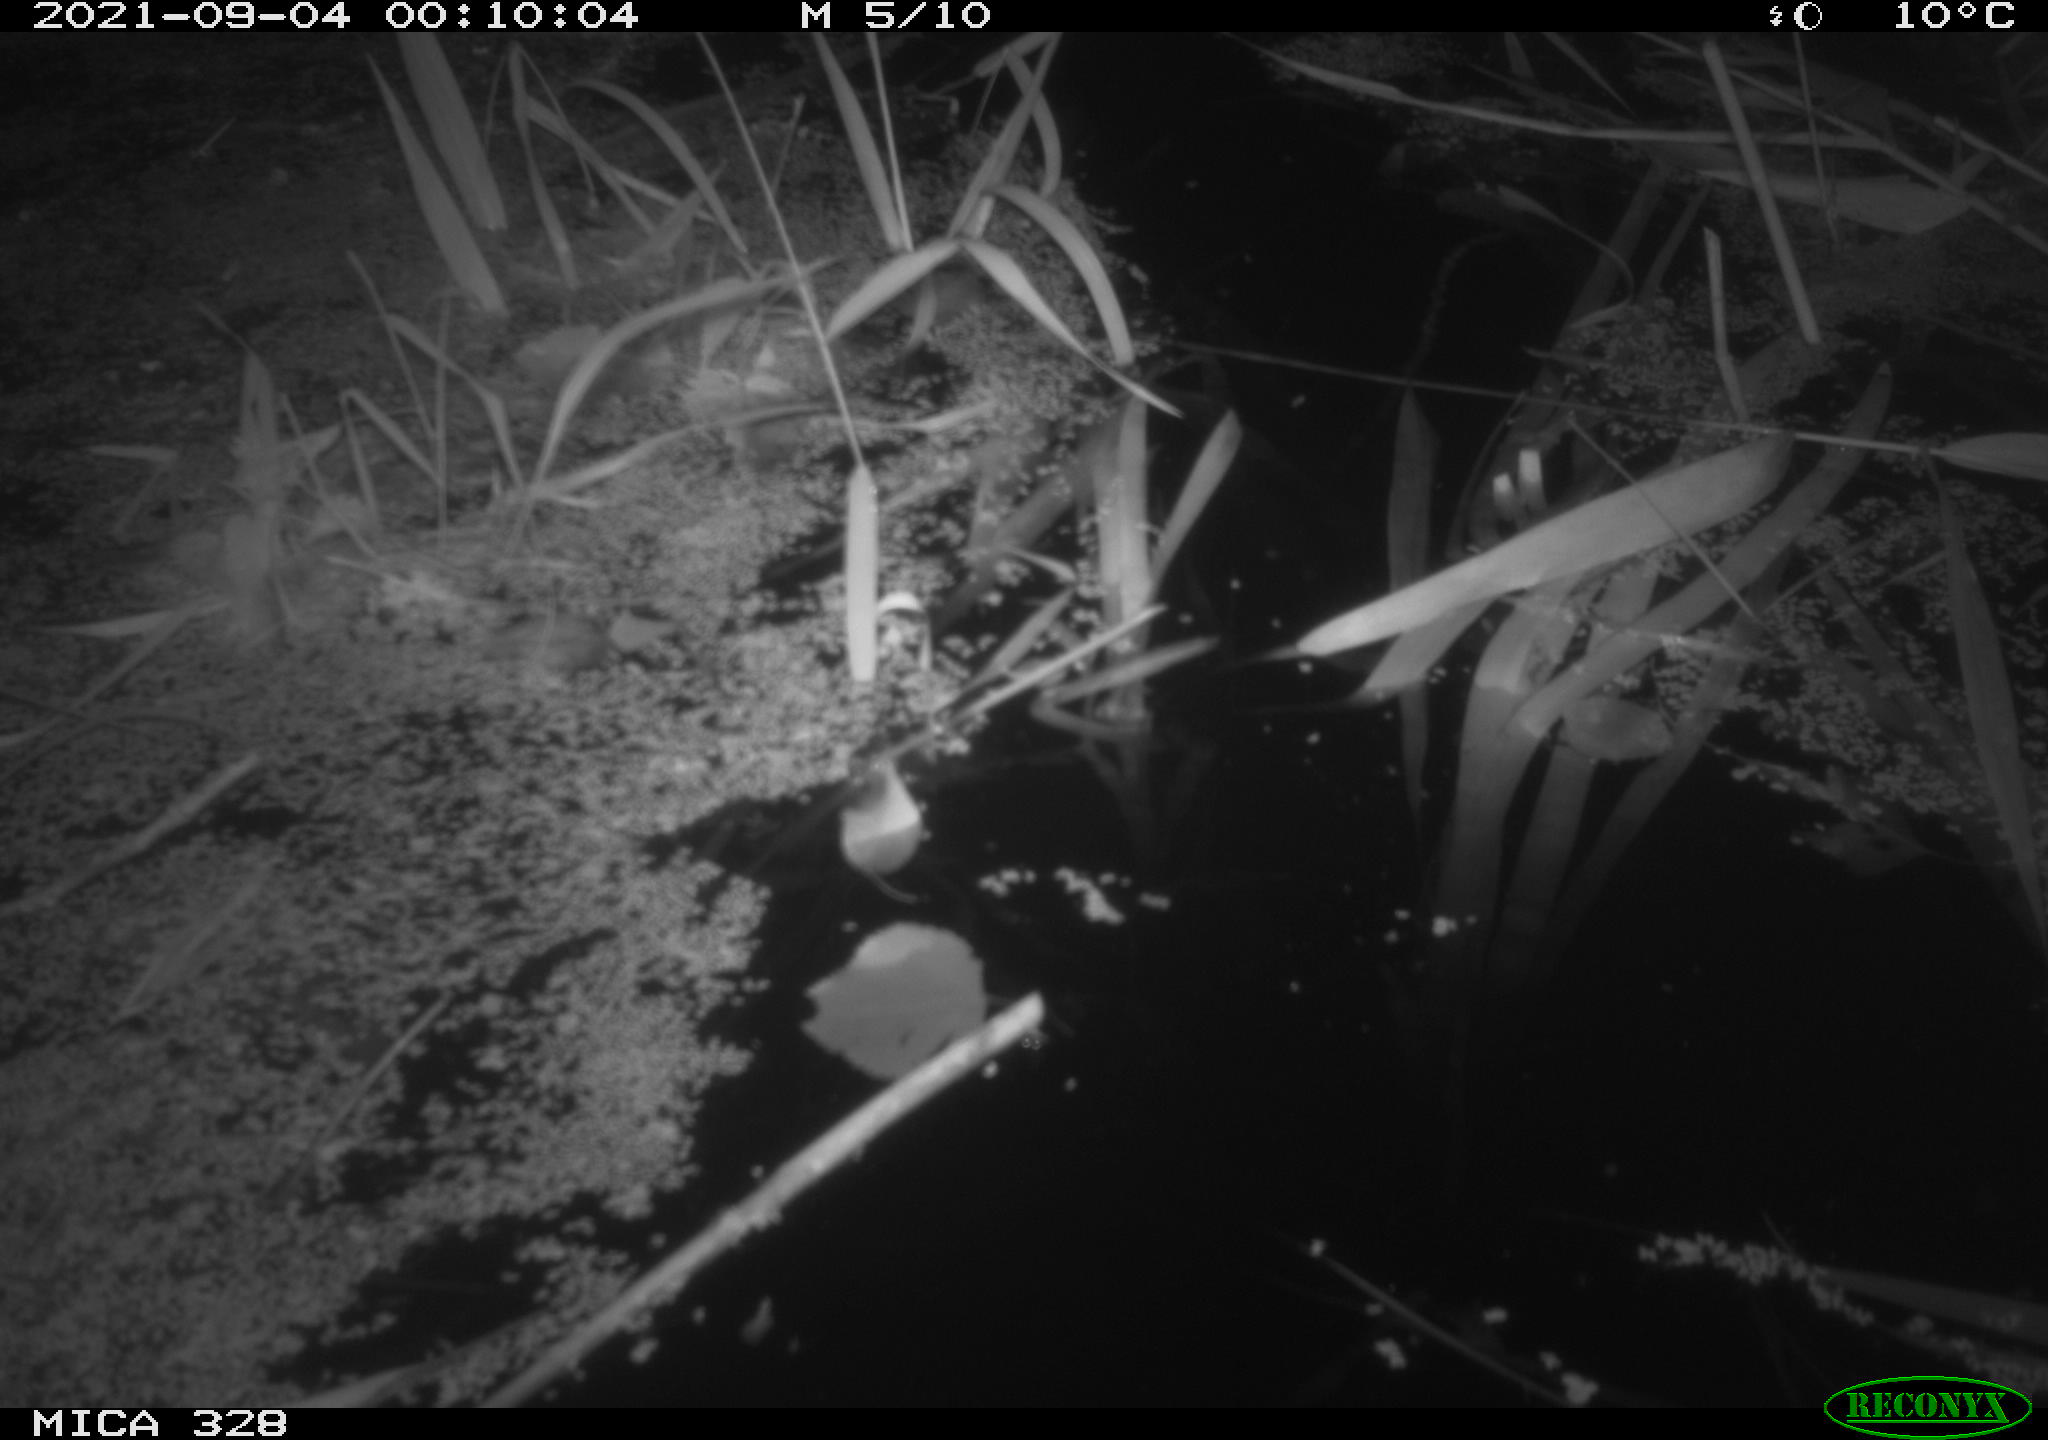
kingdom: Animalia
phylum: Chordata
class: Mammalia
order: Rodentia
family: Cricetidae
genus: Ondatra
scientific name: Ondatra zibethicus
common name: Muskrat
